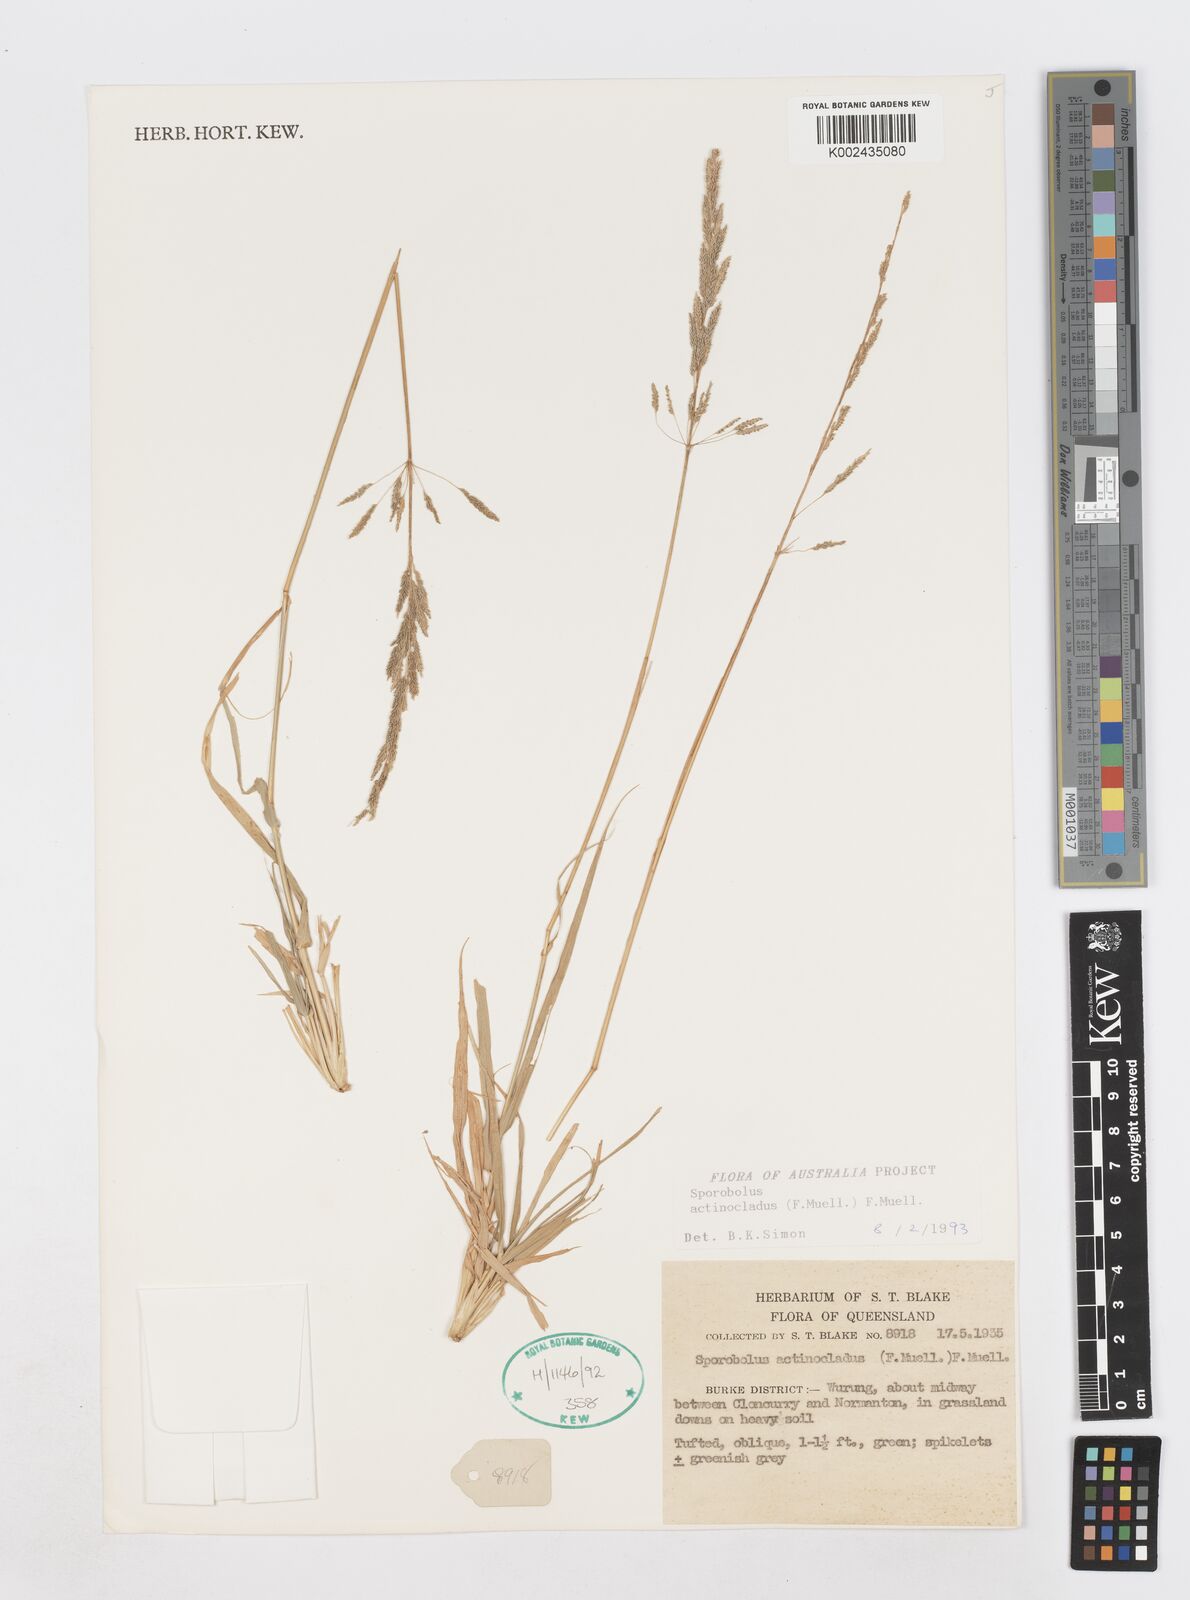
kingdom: Plantae
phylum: Tracheophyta
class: Liliopsida
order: Poales
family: Poaceae
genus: Sporobolus
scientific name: Sporobolus actinocladus
